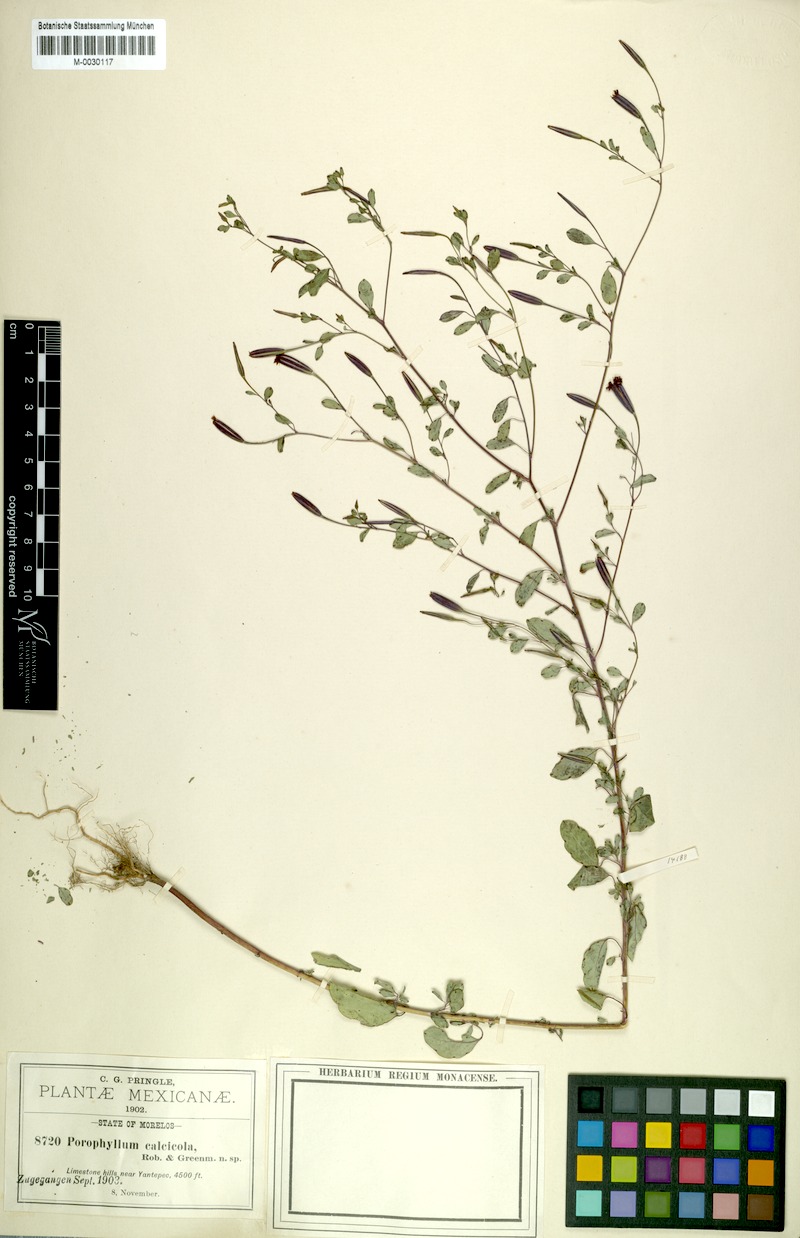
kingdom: Plantae
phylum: Tracheophyta
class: Magnoliopsida
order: Asterales
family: Asteraceae
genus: Porophyllum
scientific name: Porophyllum calcicola
